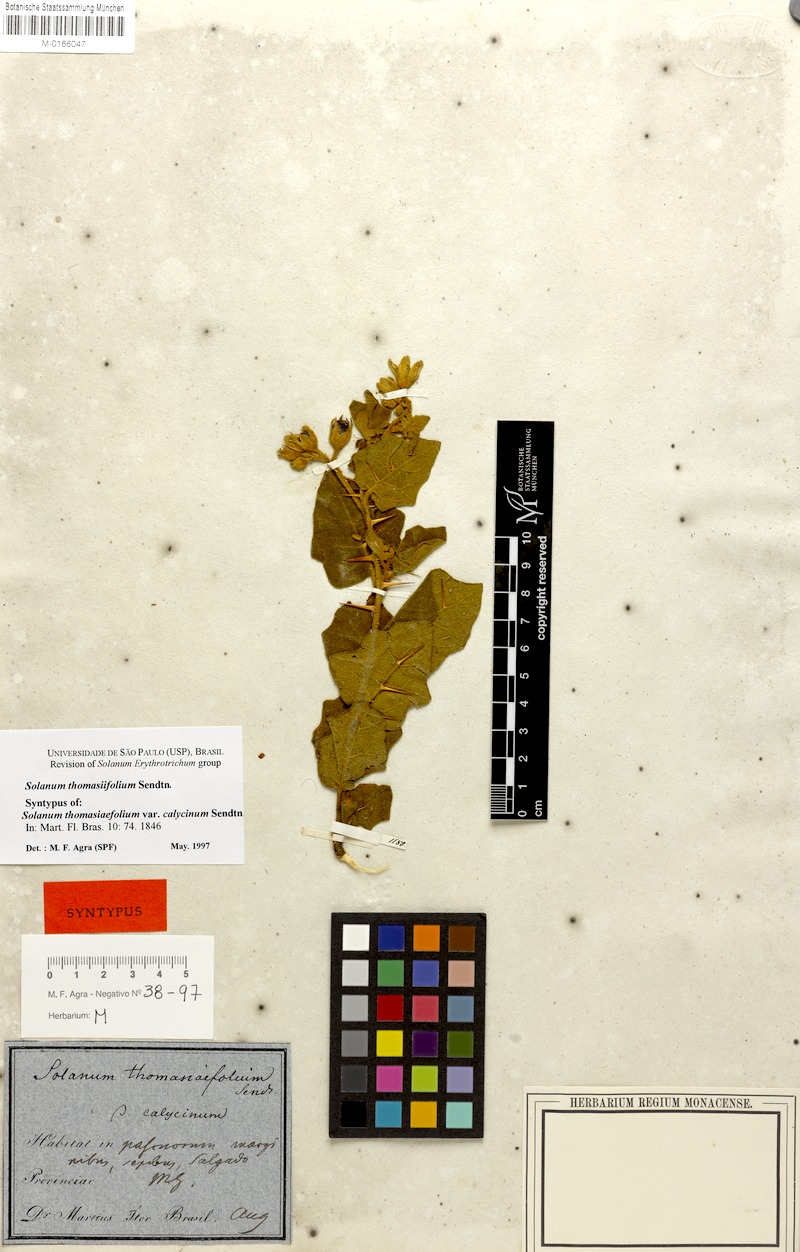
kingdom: Plantae
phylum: Tracheophyta
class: Magnoliopsida
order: Solanales
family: Solanaceae
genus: Solanum
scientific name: Solanum thomasiifolium
